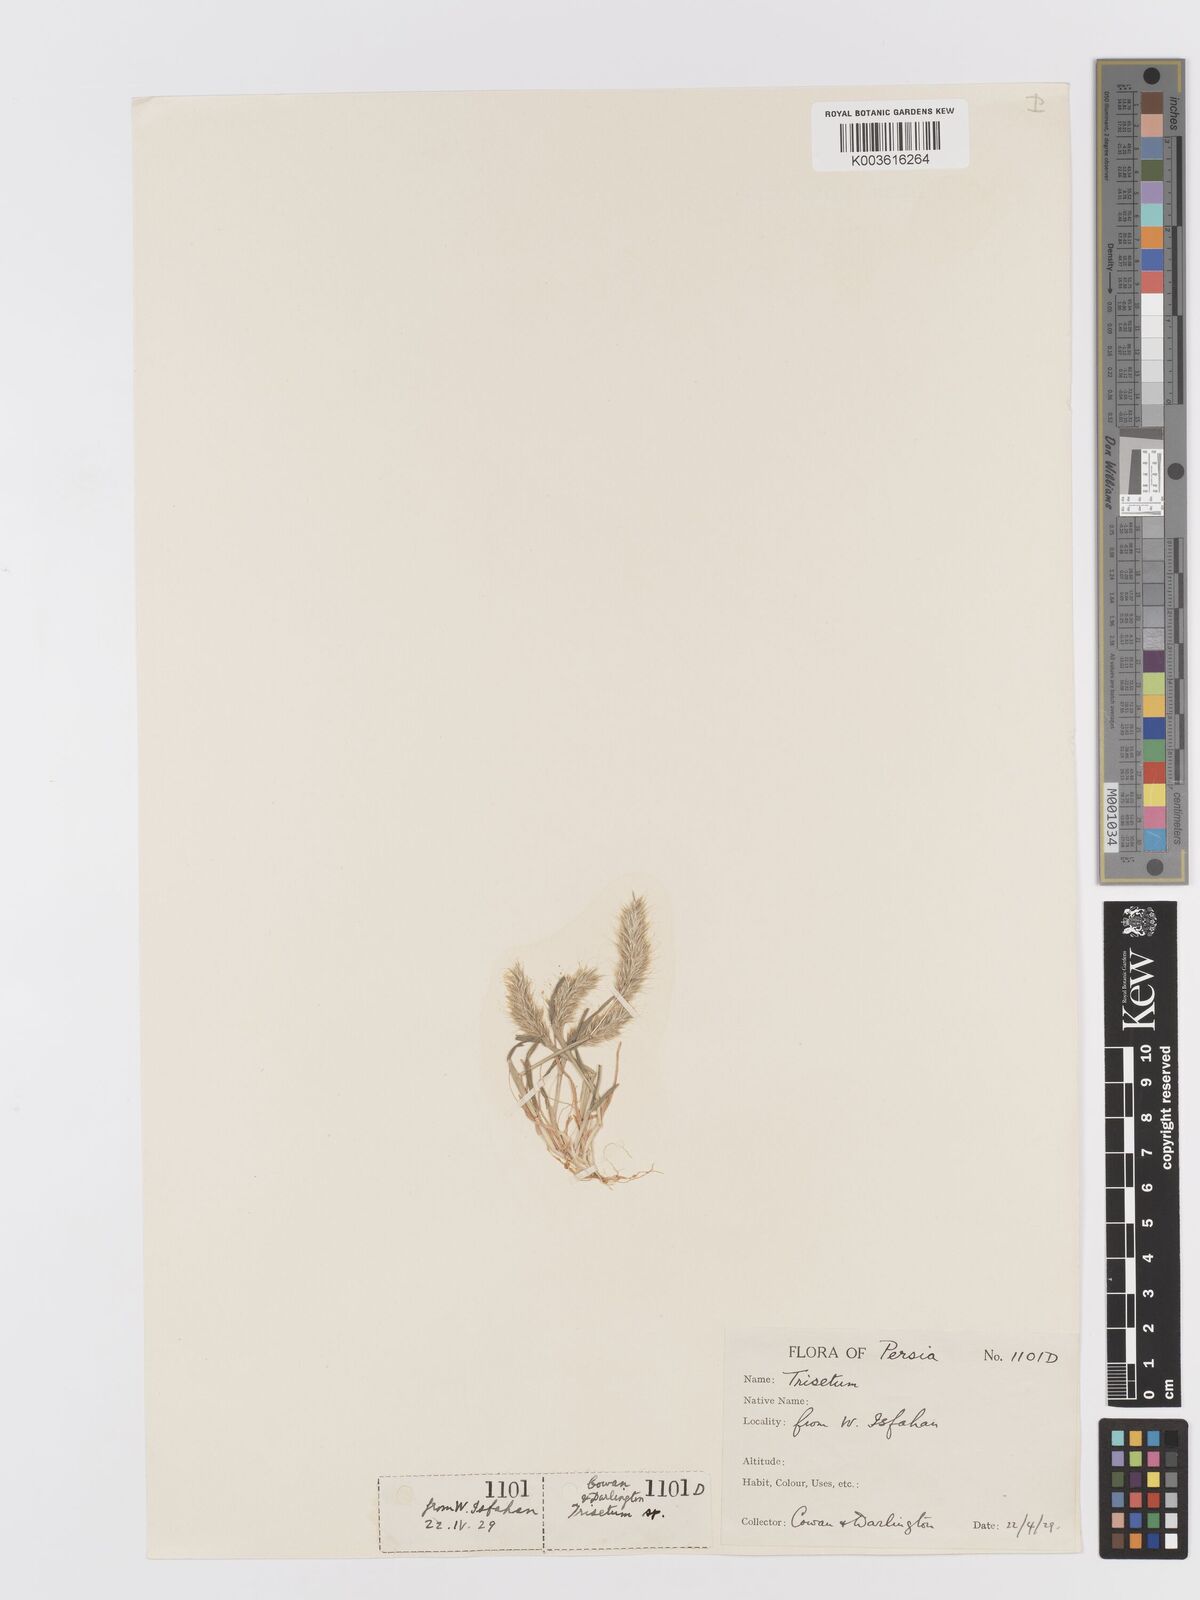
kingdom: Plantae
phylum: Tracheophyta
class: Liliopsida
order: Poales
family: Poaceae
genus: Trisetaria
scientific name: Trisetaria
